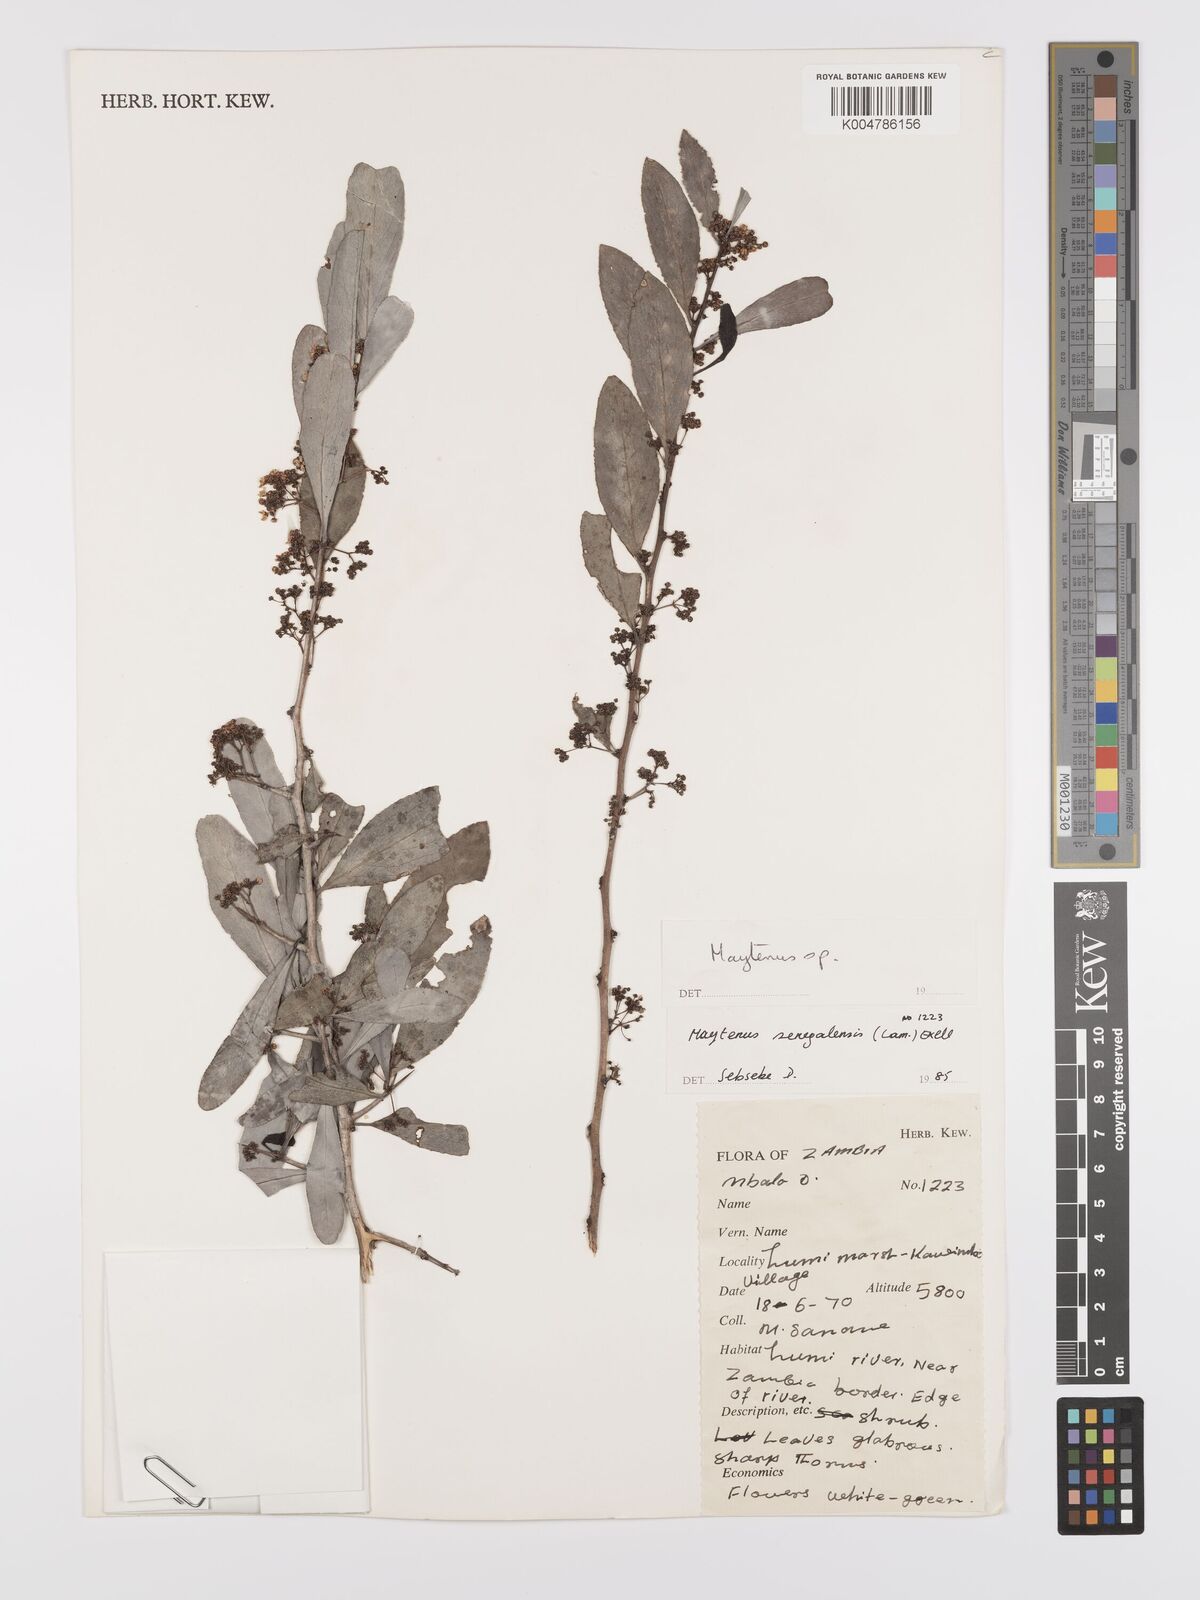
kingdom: Plantae
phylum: Tracheophyta
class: Magnoliopsida
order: Celastrales
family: Celastraceae
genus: Gymnosporia
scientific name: Gymnosporia senegalensis
